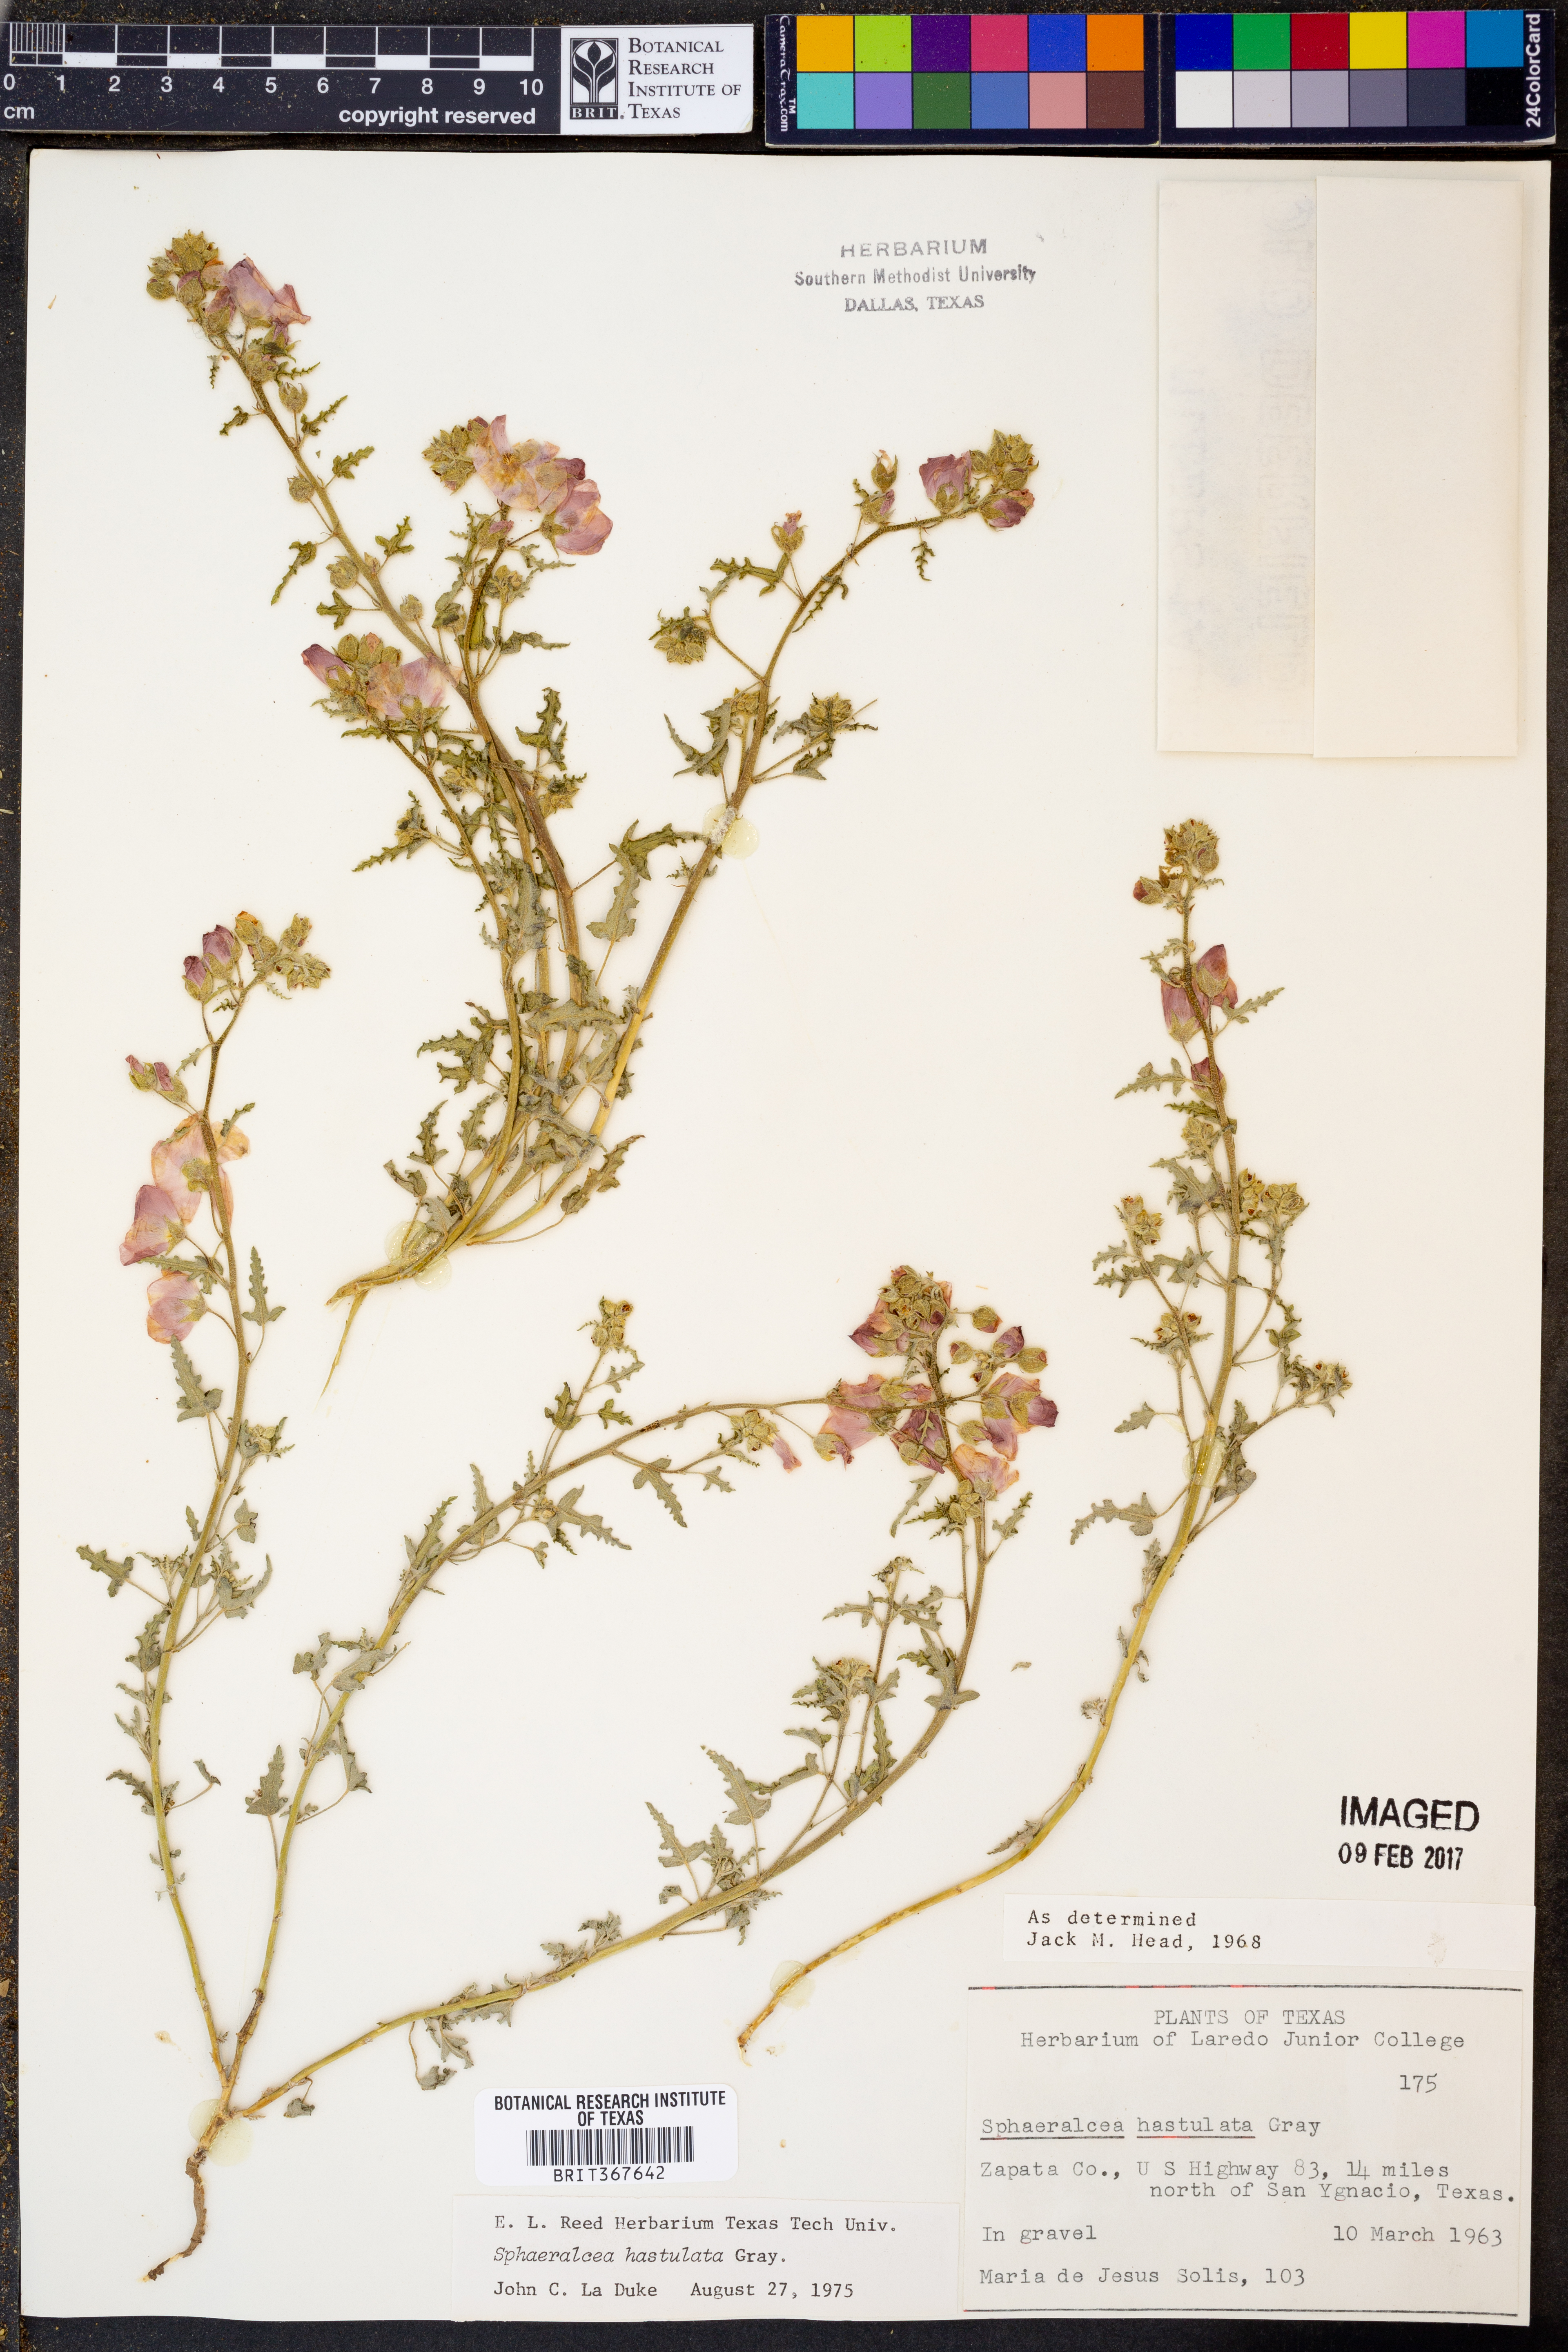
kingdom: Plantae
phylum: Tracheophyta
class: Magnoliopsida
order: Malvales
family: Malvaceae
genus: Sphaeralcea
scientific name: Sphaeralcea hastulata
